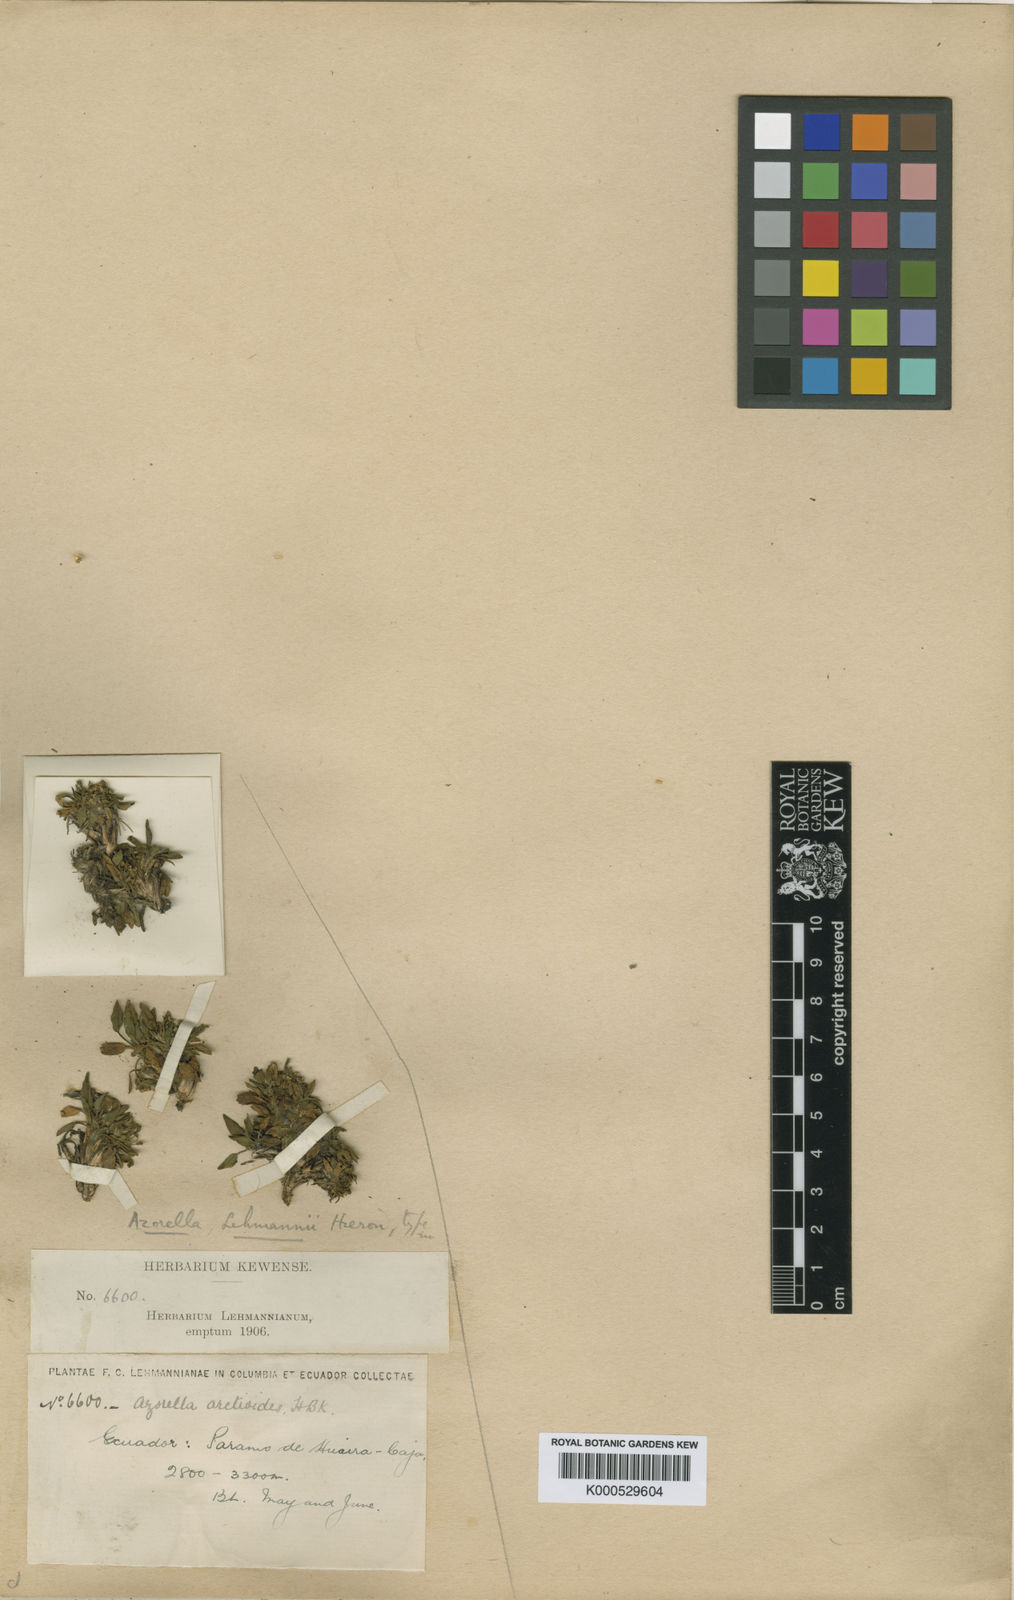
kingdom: Plantae
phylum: Tracheophyta
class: Magnoliopsida
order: Apiales
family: Apiaceae
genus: Azorella
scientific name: Azorella biloba
